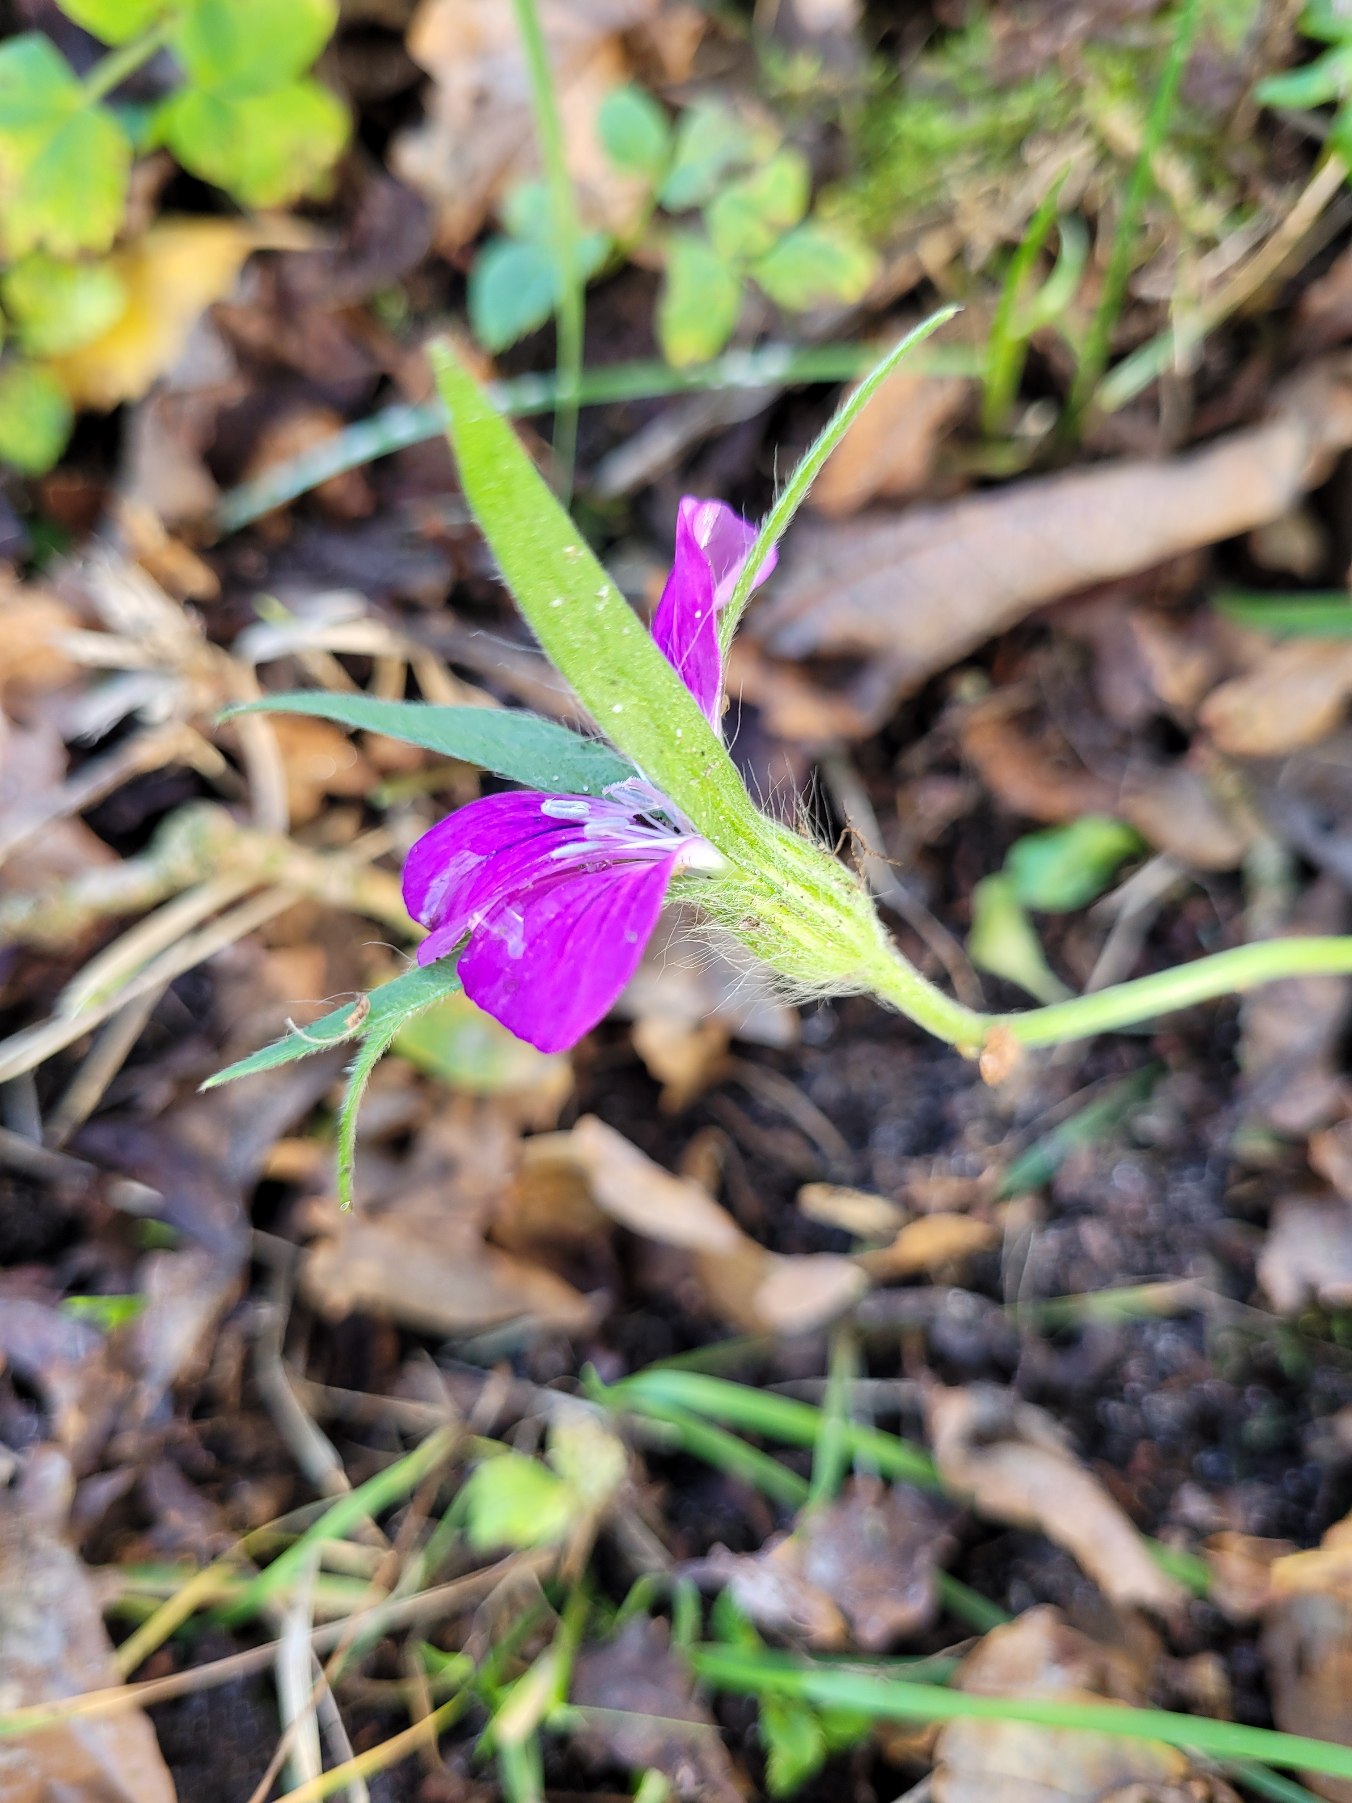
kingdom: Plantae
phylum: Tracheophyta
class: Magnoliopsida
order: Caryophyllales
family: Caryophyllaceae
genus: Agrostemma
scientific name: Agrostemma githago
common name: Klinte
